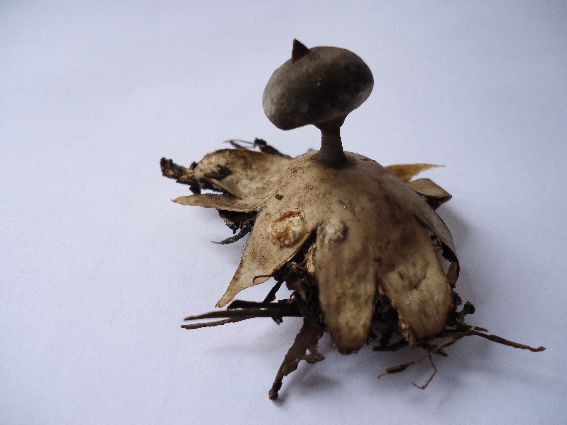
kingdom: Fungi
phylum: Basidiomycota
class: Agaricomycetes
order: Geastrales
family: Geastraceae
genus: Geastrum
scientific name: Geastrum pectinatum
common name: stilket stjernebold
